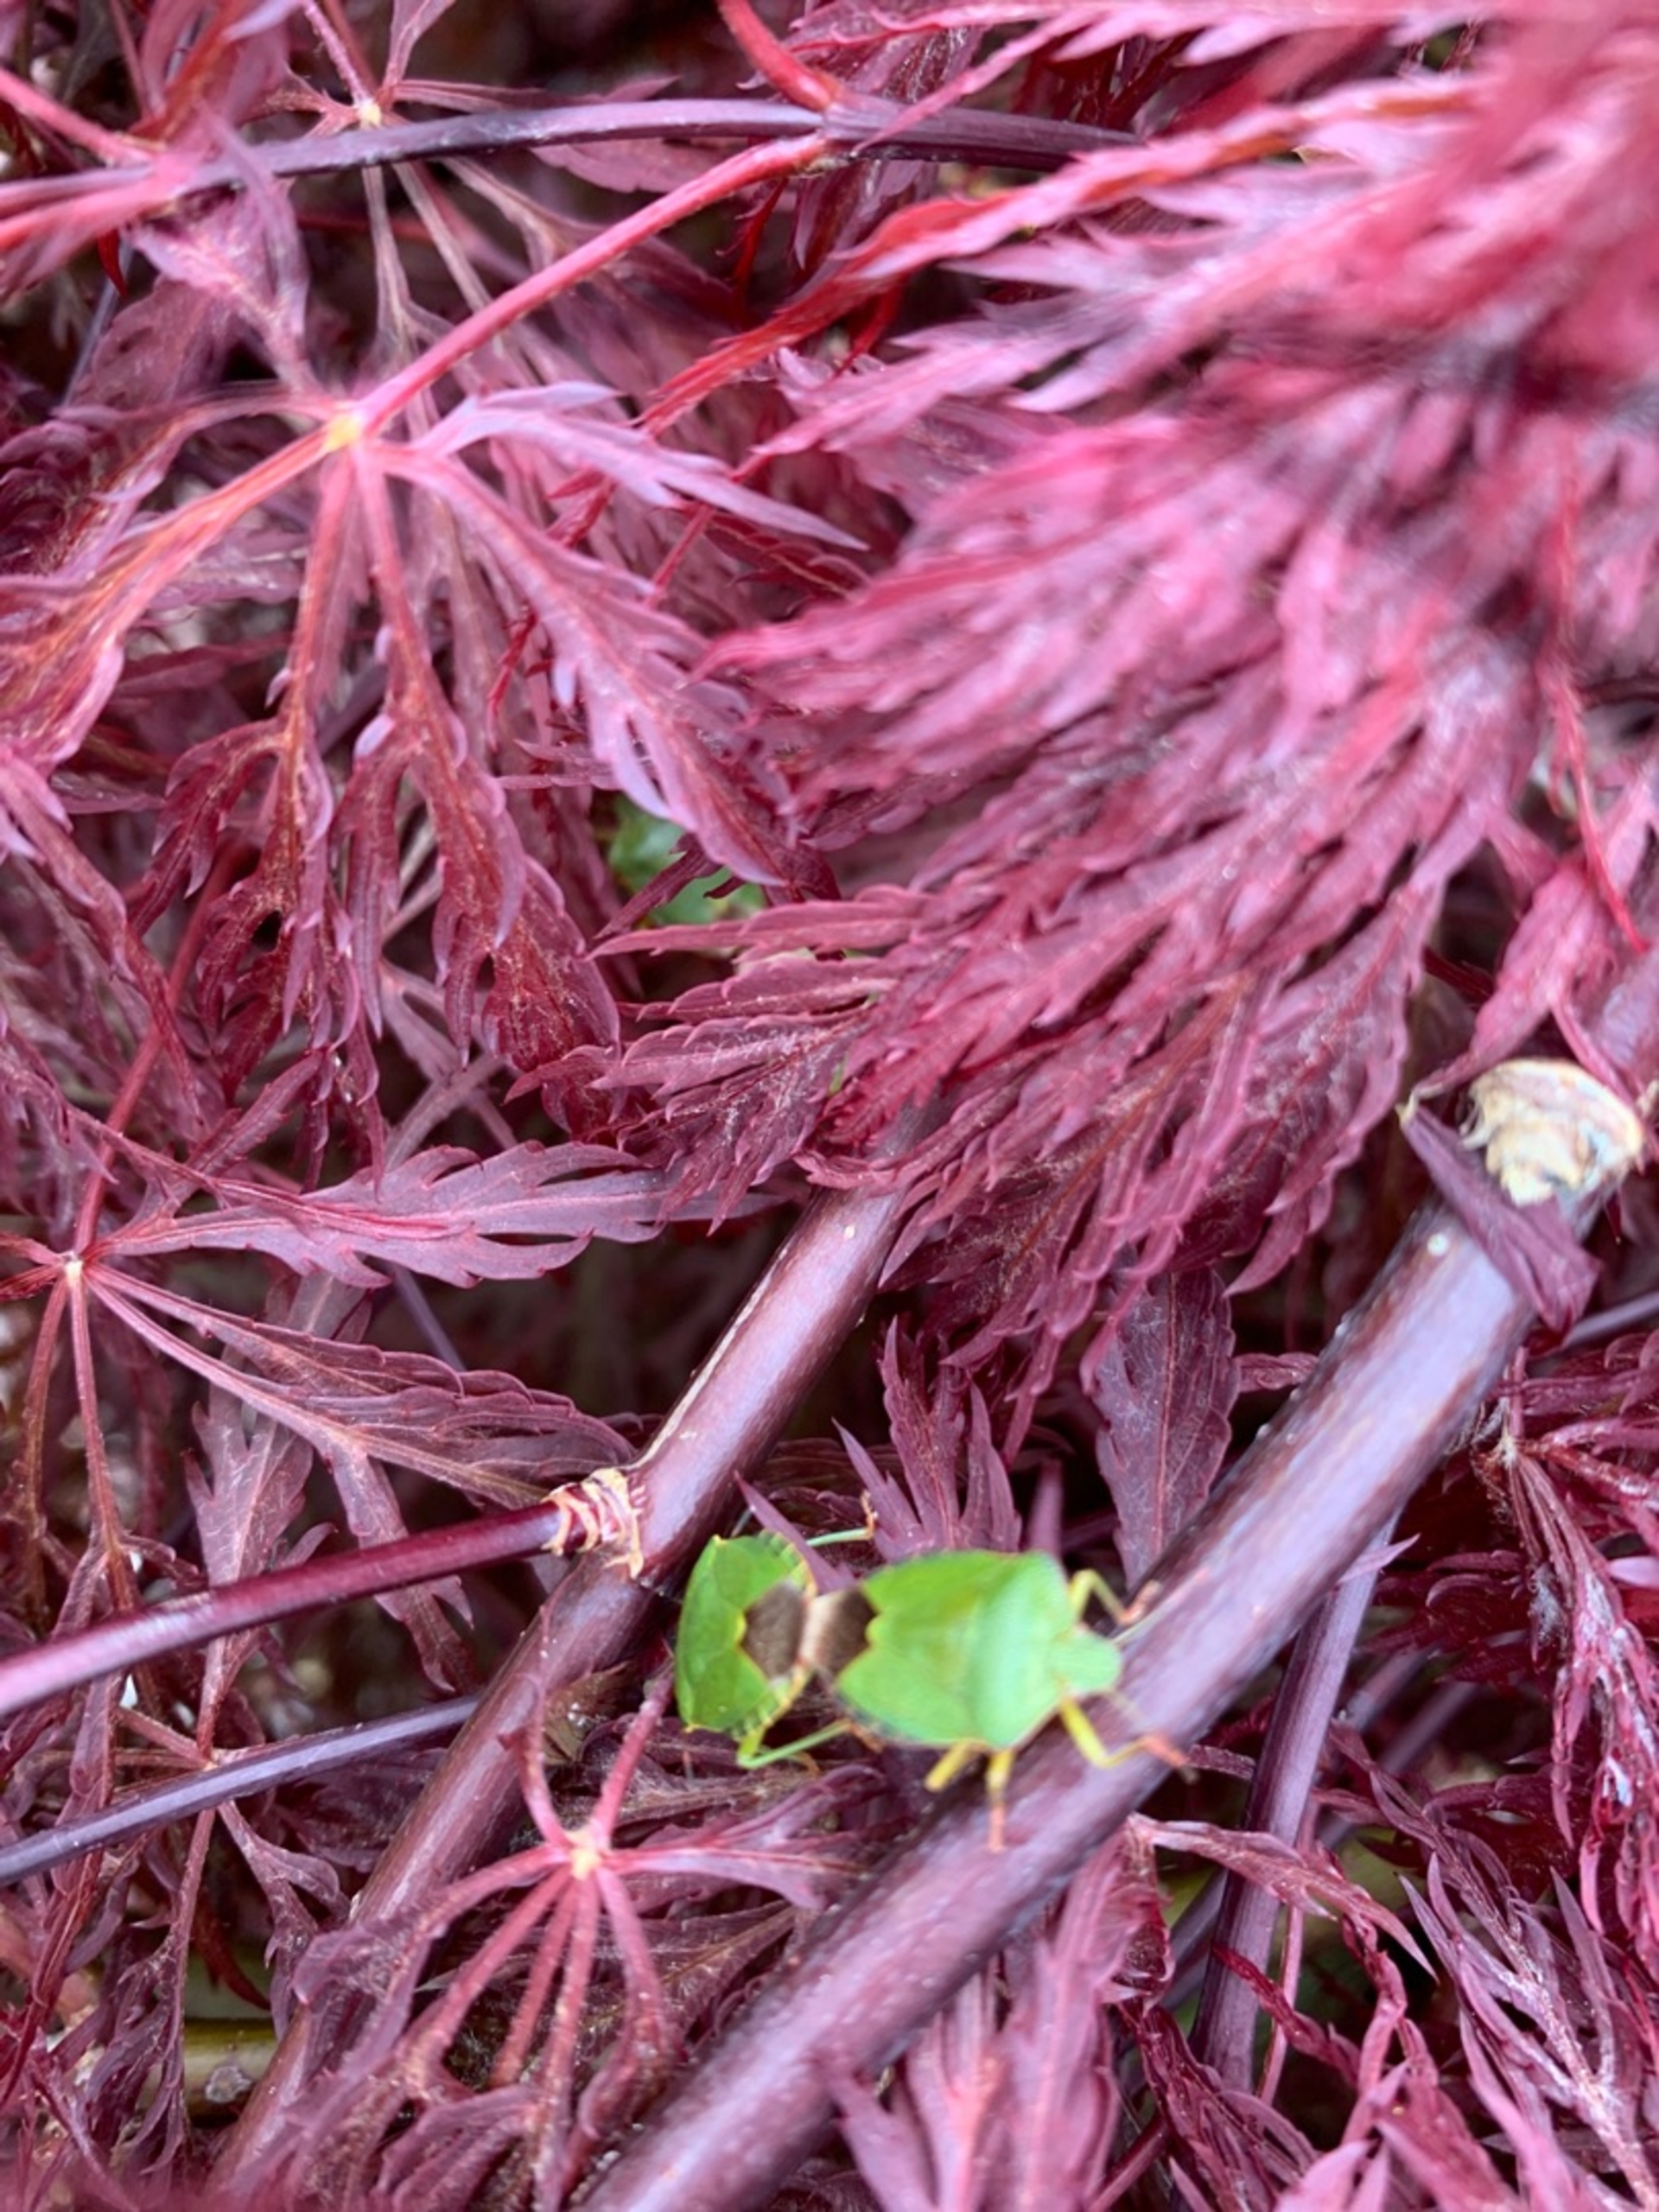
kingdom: Animalia
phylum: Arthropoda
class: Insecta
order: Hemiptera
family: Pentatomidae
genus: Palomena
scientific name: Palomena prasina
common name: Grøn bredtæge
